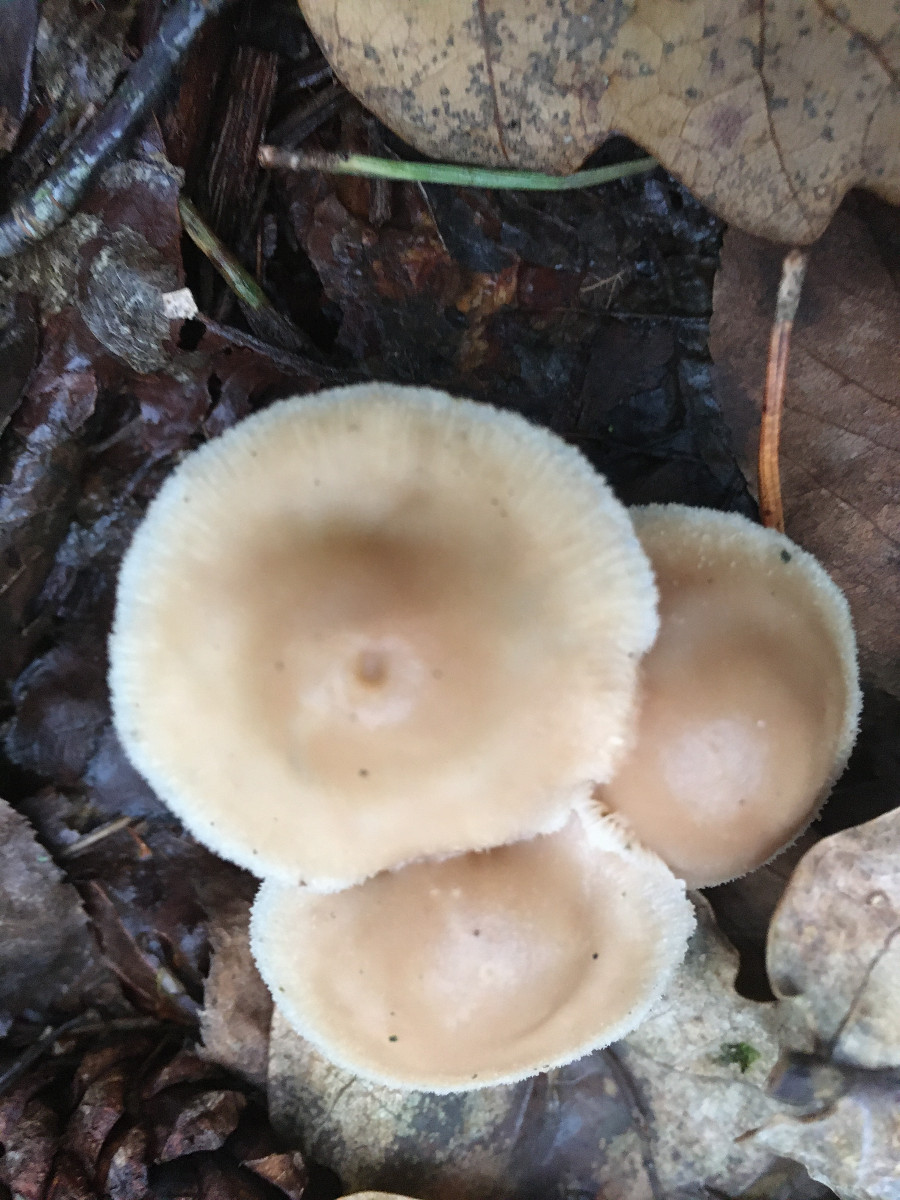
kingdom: Fungi
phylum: Basidiomycota
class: Agaricomycetes
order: Agaricales
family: Omphalotaceae
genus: Collybiopsis
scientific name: Collybiopsis confluens
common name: knippe-fladhat
